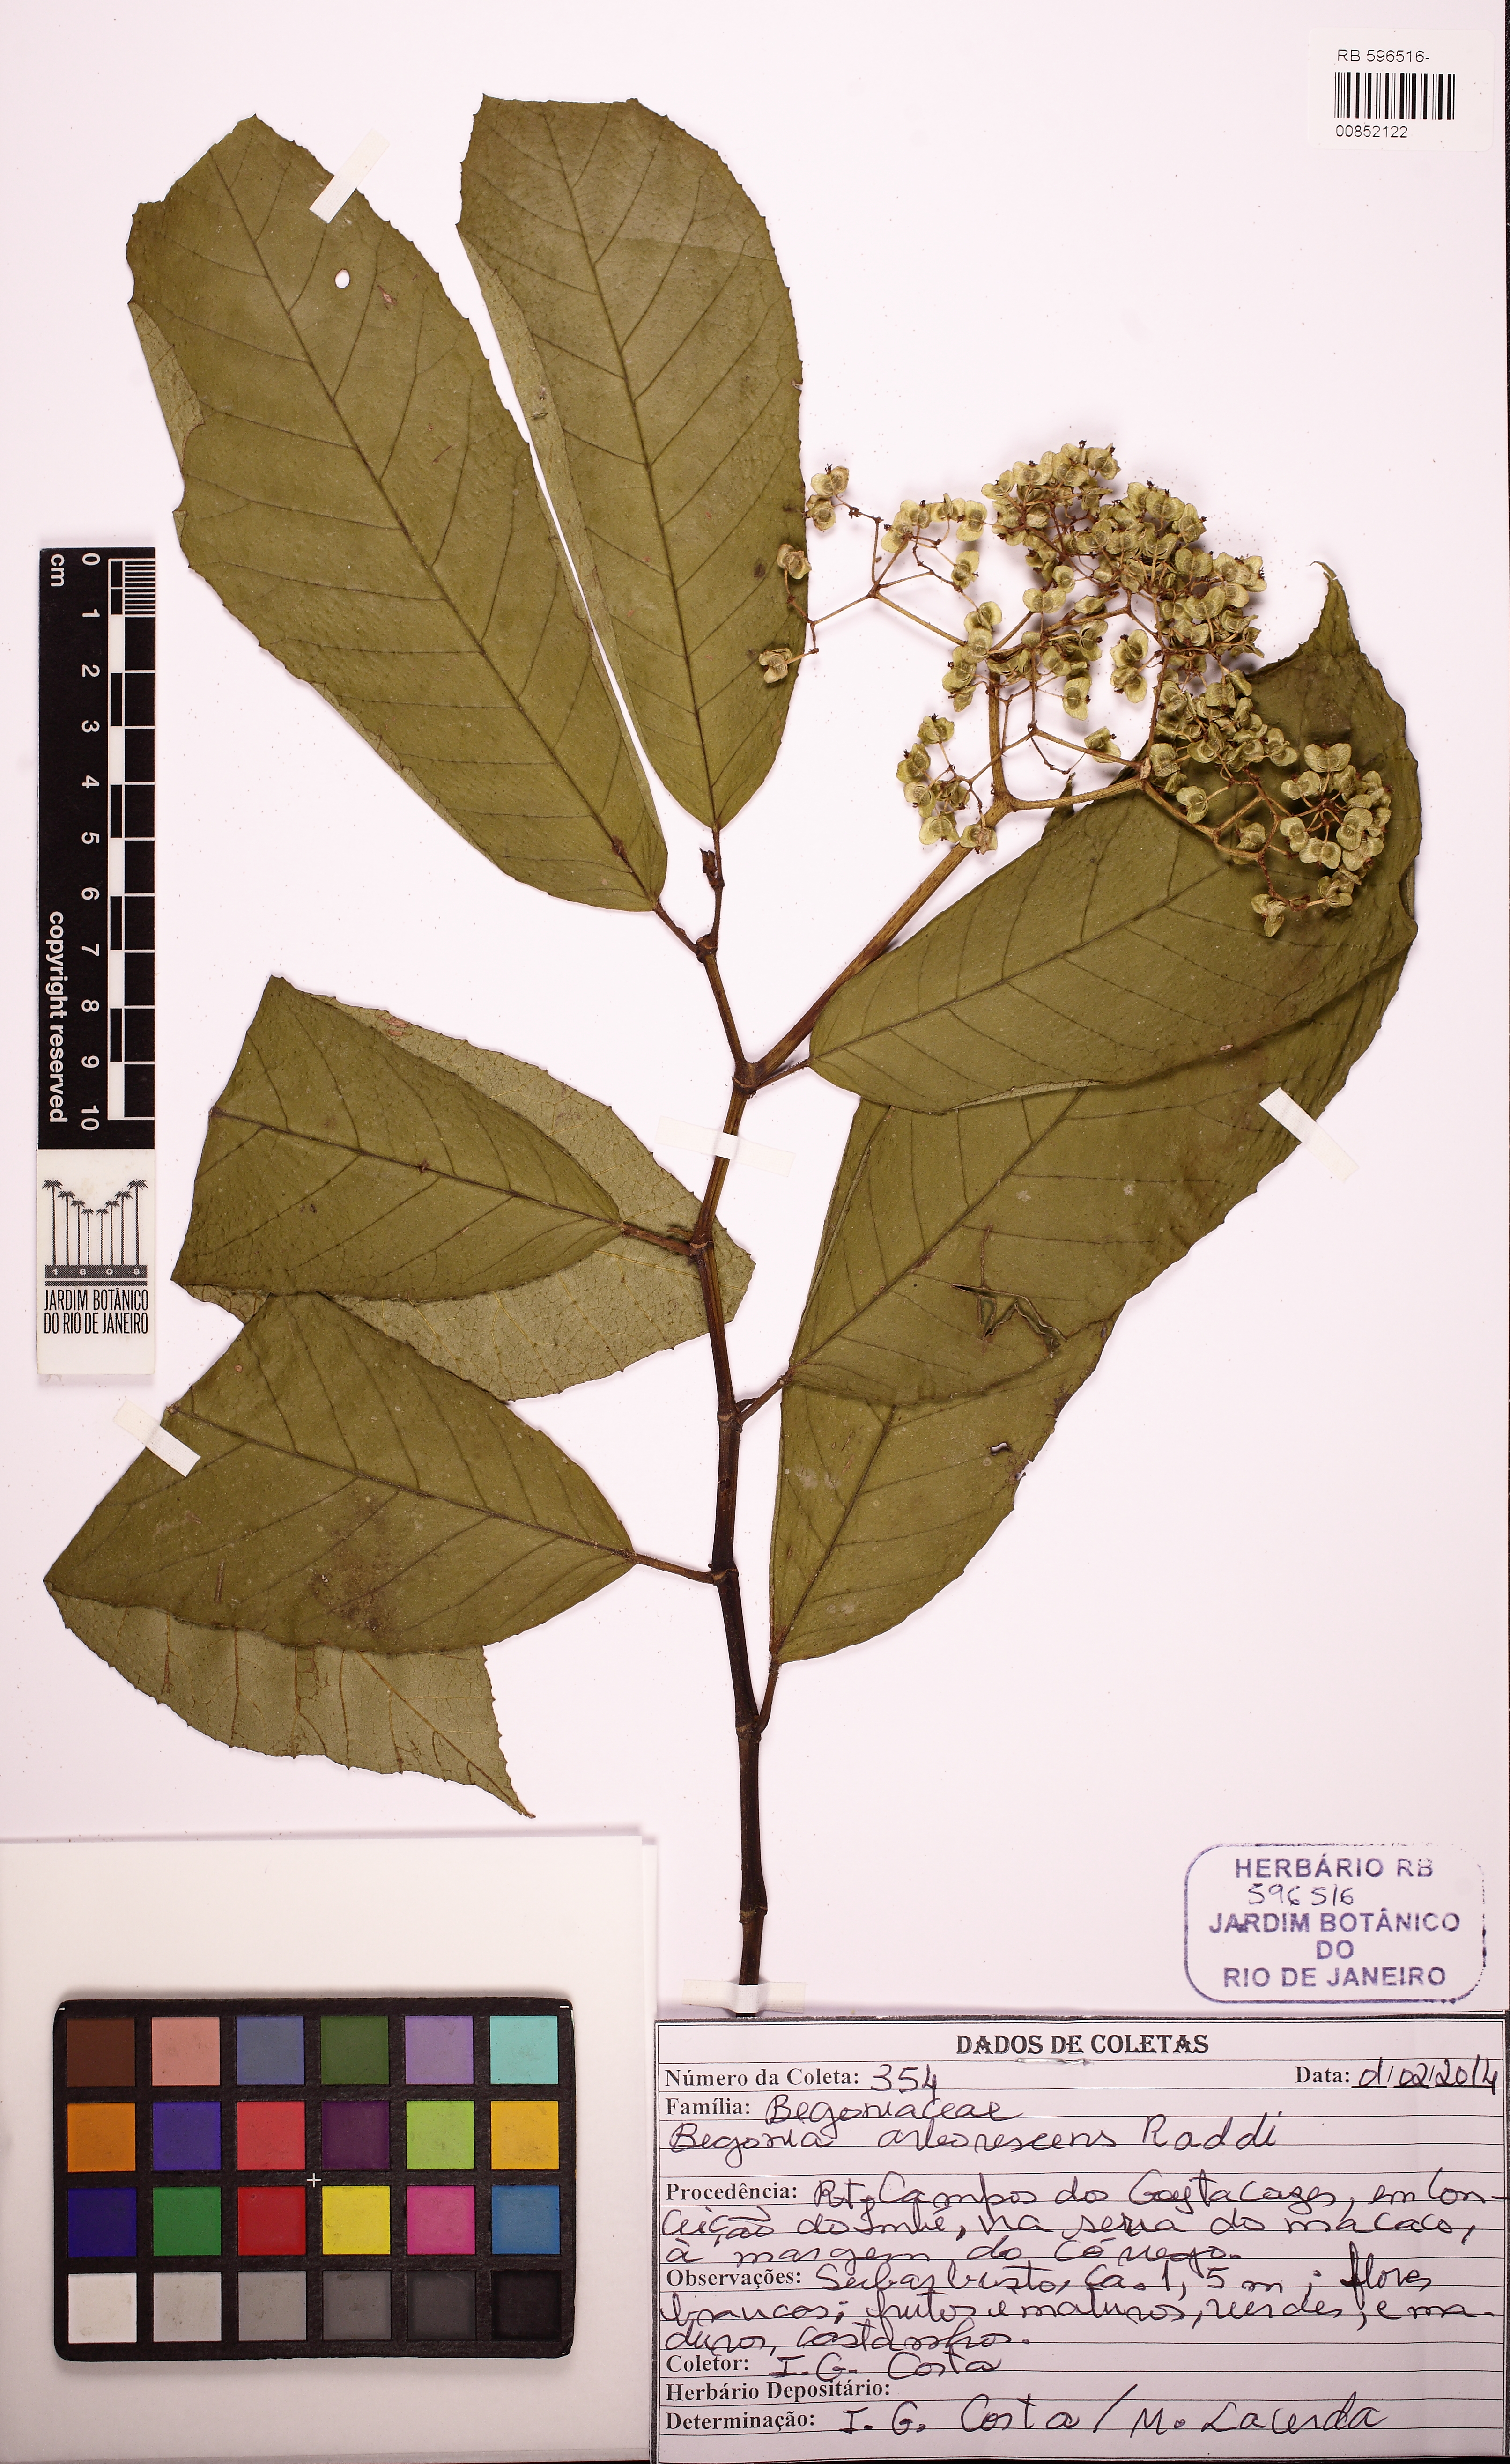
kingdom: Plantae
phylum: Tracheophyta
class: Magnoliopsida
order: Cucurbitales
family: Begoniaceae
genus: Begonia
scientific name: Begonia arborescens
